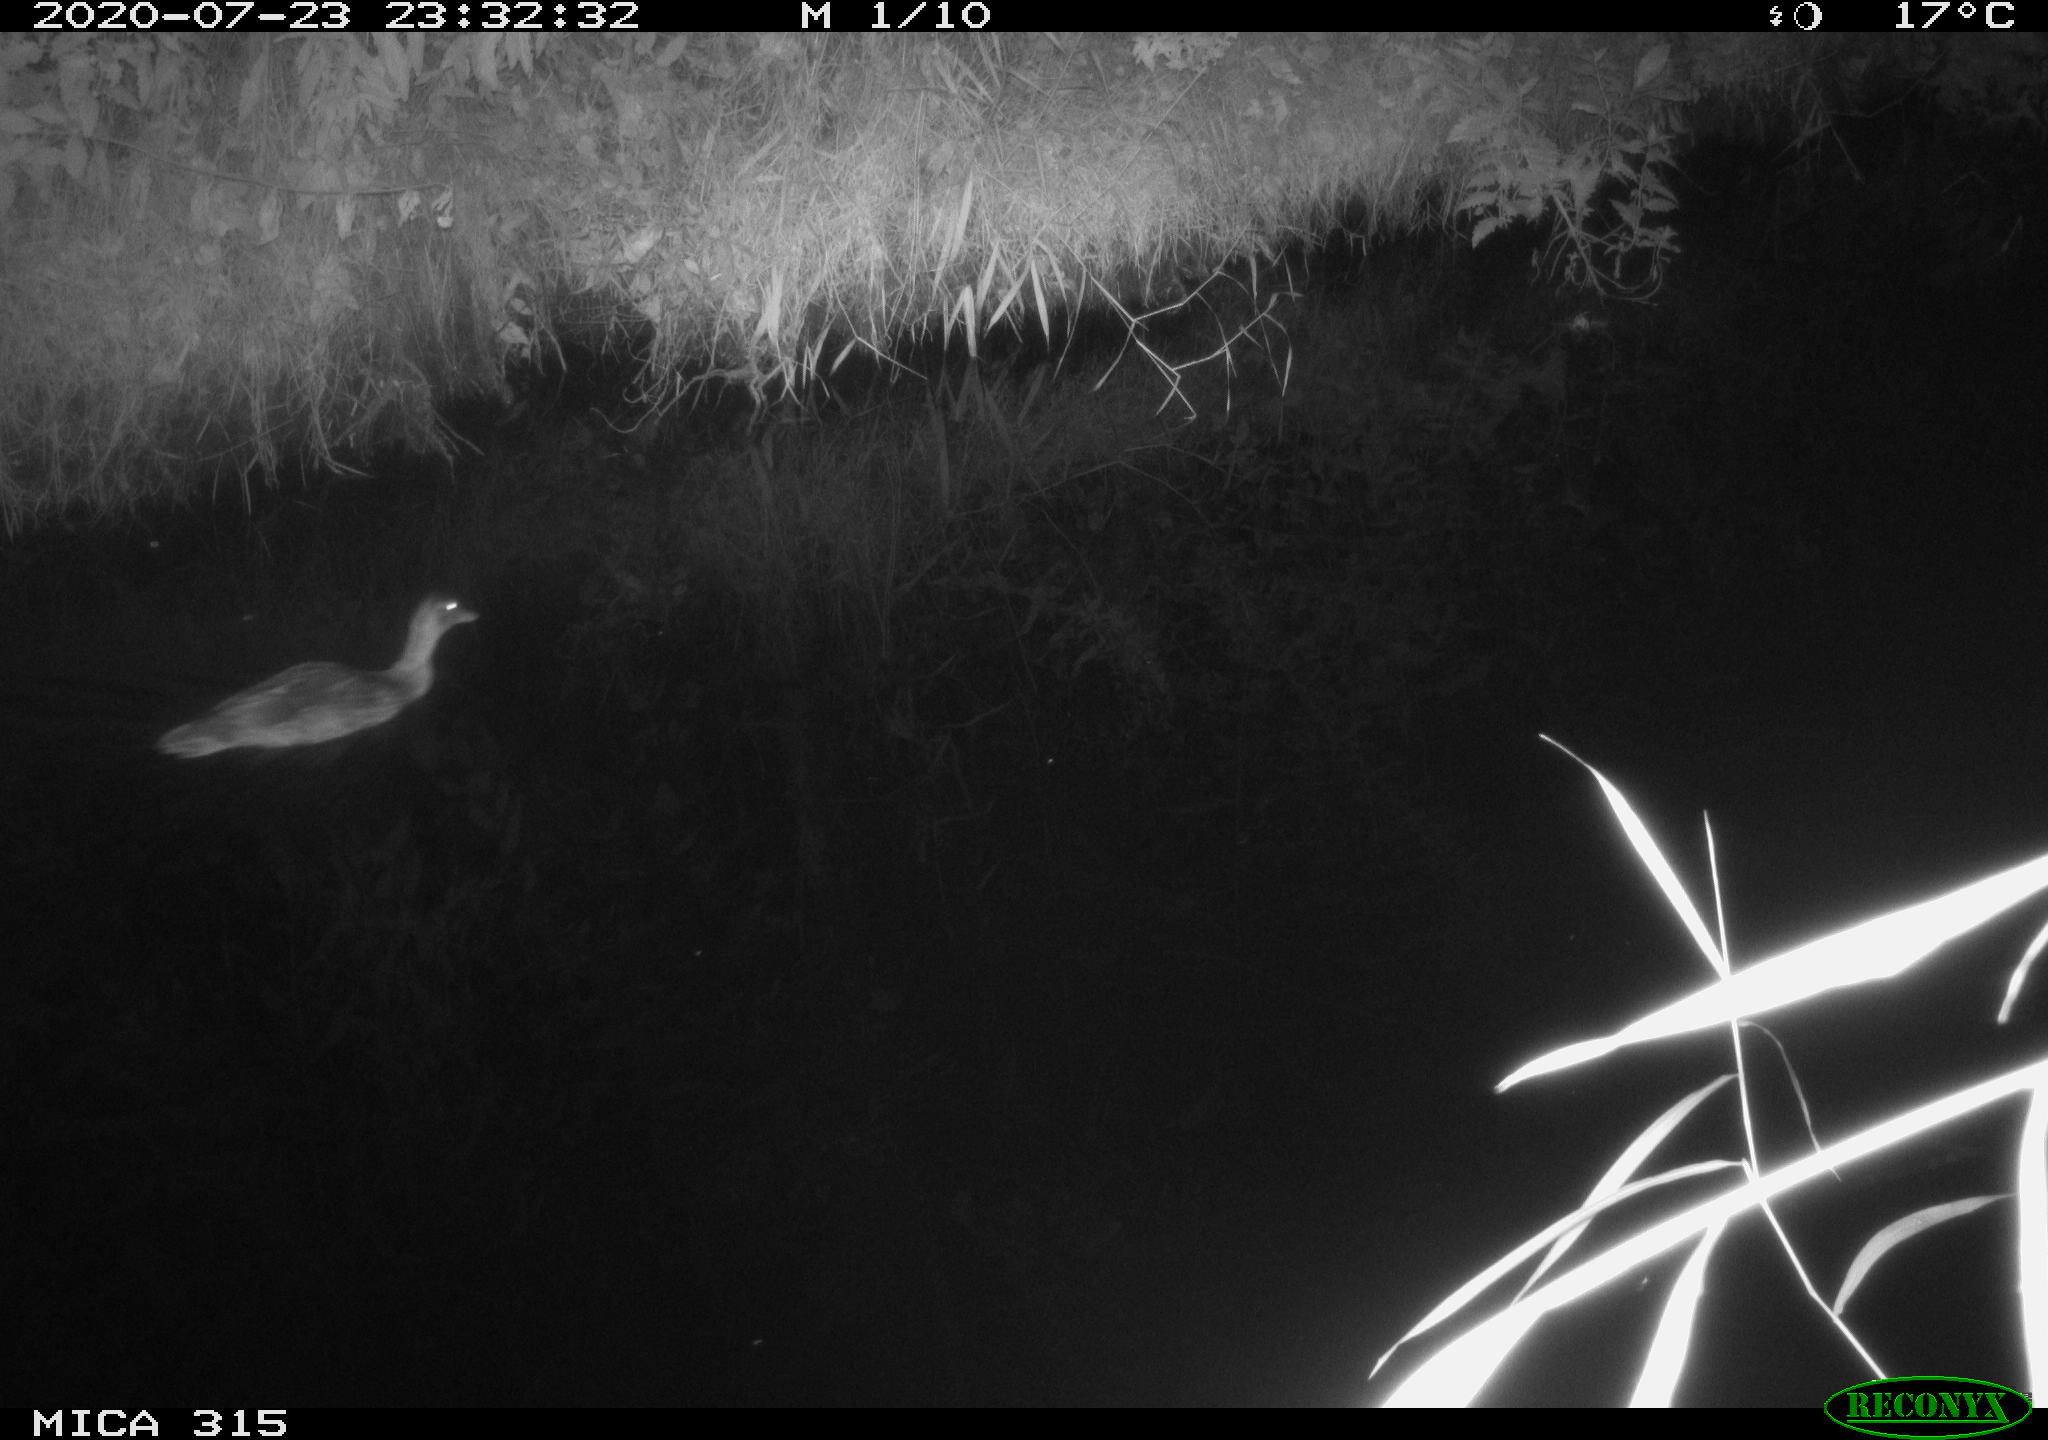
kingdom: Animalia
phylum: Chordata
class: Aves
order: Anseriformes
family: Anatidae
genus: Anas
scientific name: Anas platyrhynchos
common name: Mallard
